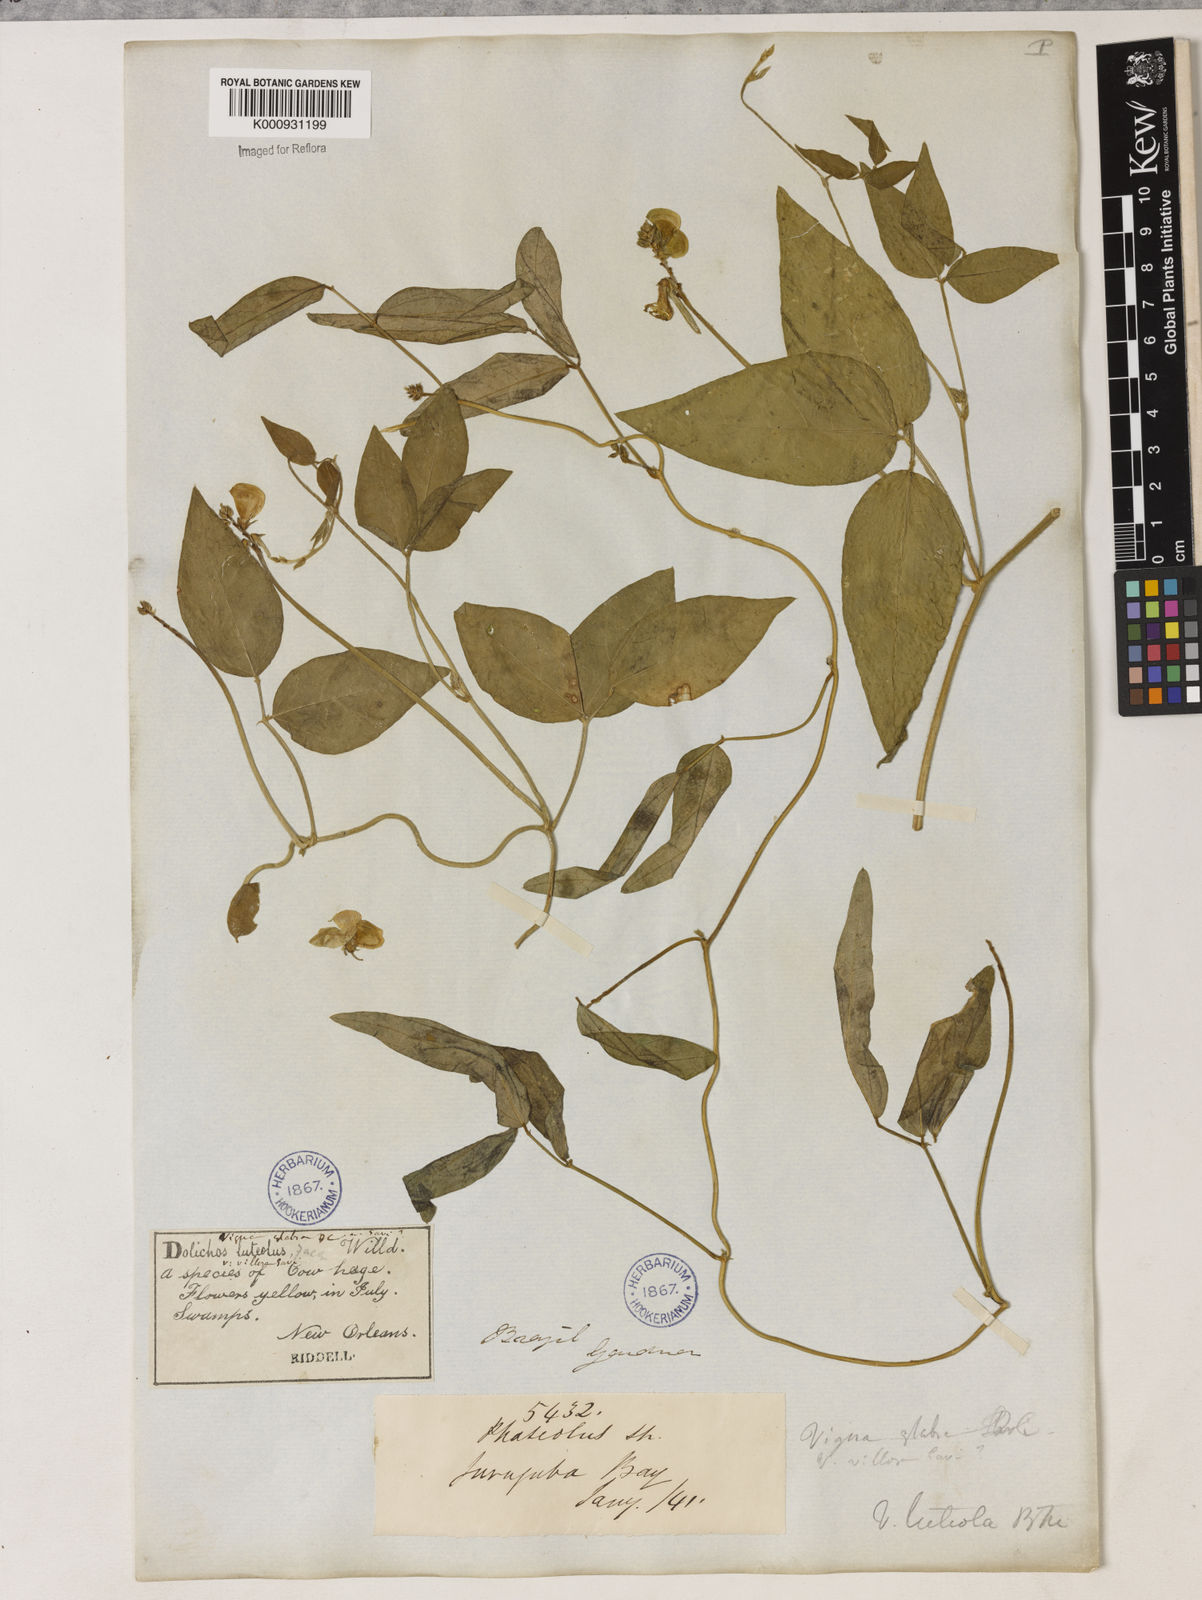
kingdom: Plantae
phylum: Tracheophyta
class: Magnoliopsida
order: Fabales
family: Fabaceae
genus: Vigna
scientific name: Vigna luteola
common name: Hairypod cowpea
